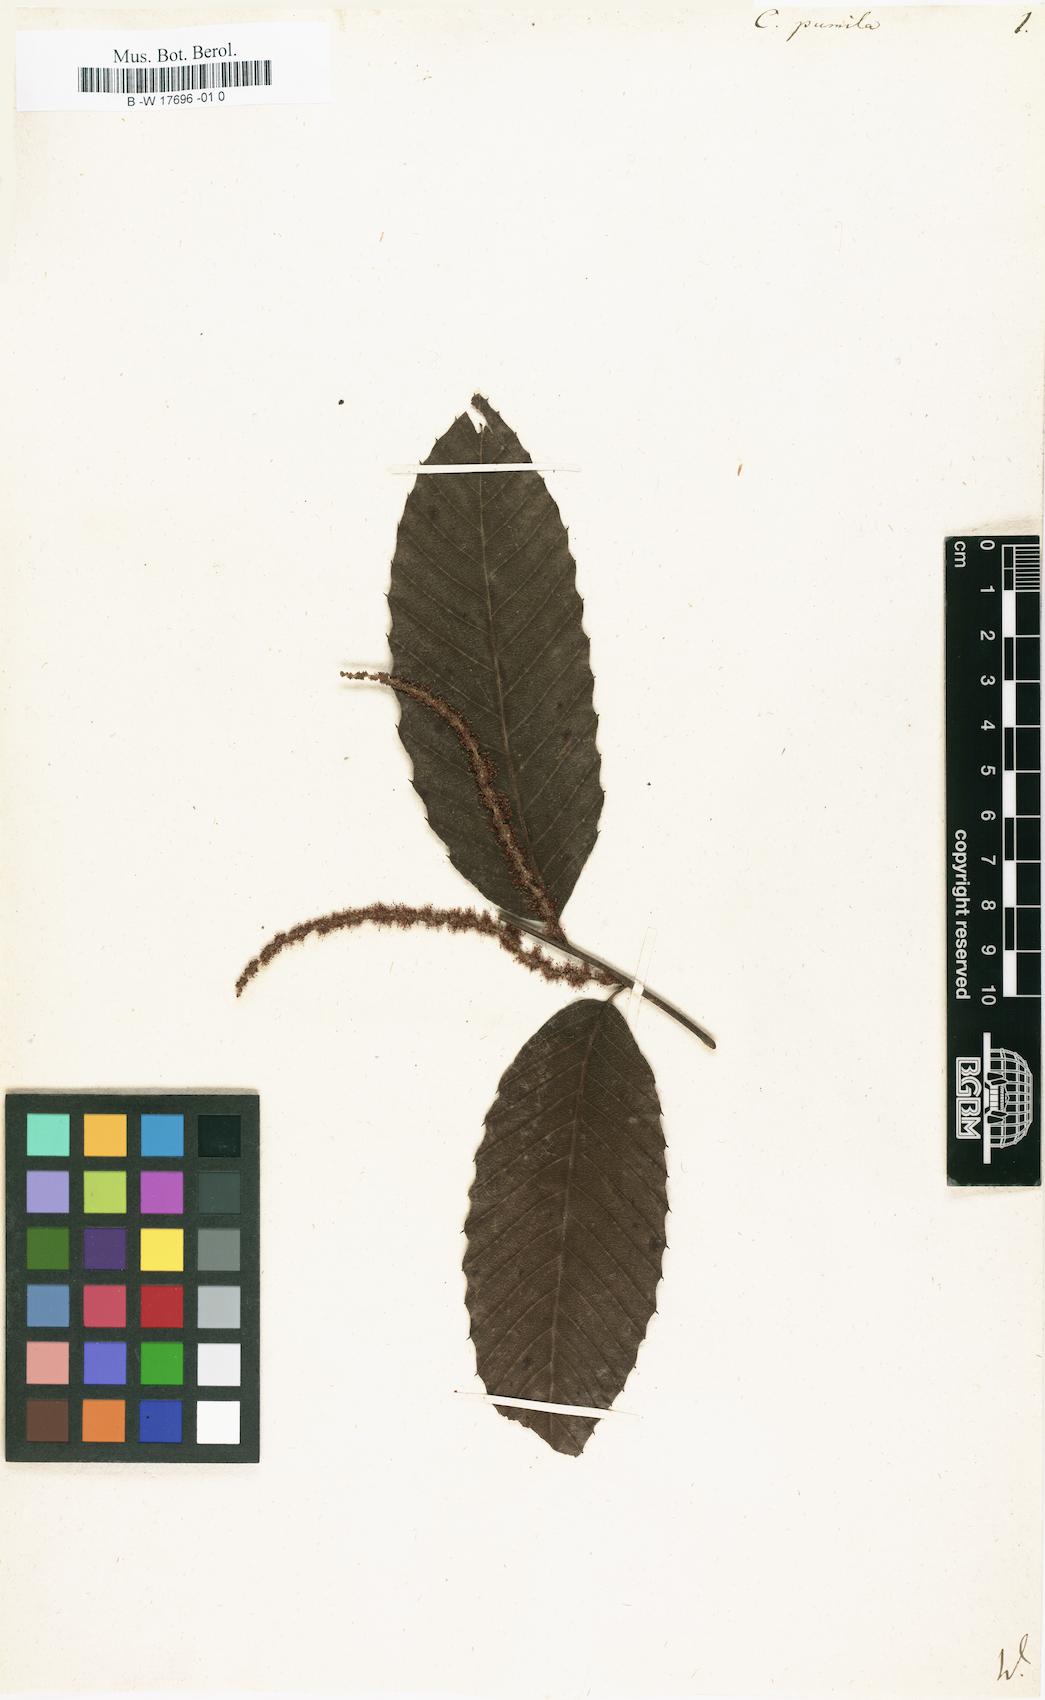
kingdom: Plantae
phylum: Tracheophyta
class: Magnoliopsida
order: Fagales
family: Fagaceae
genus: Castanea
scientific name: Castanea pumila
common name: Chinkapin
